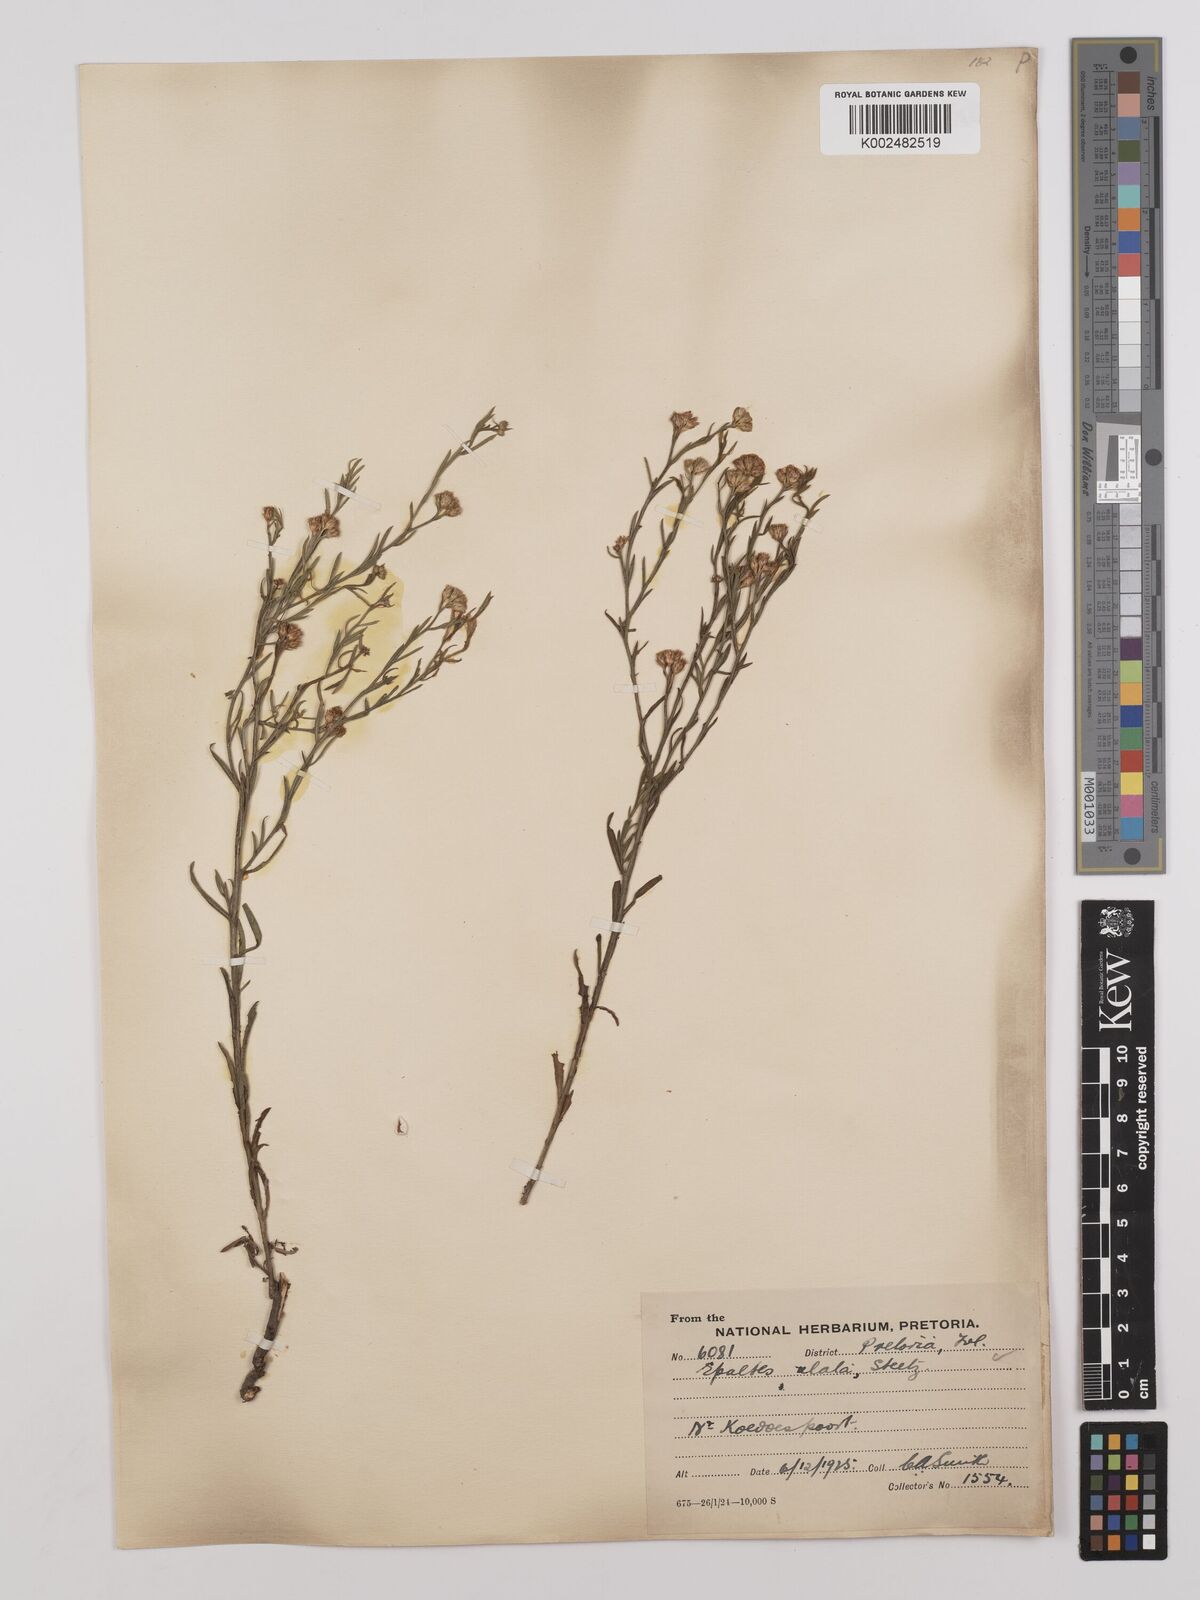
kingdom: Plantae
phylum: Tracheophyta
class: Magnoliopsida
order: Asterales
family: Asteraceae
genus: Litogyne
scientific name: Litogyne gariepina
